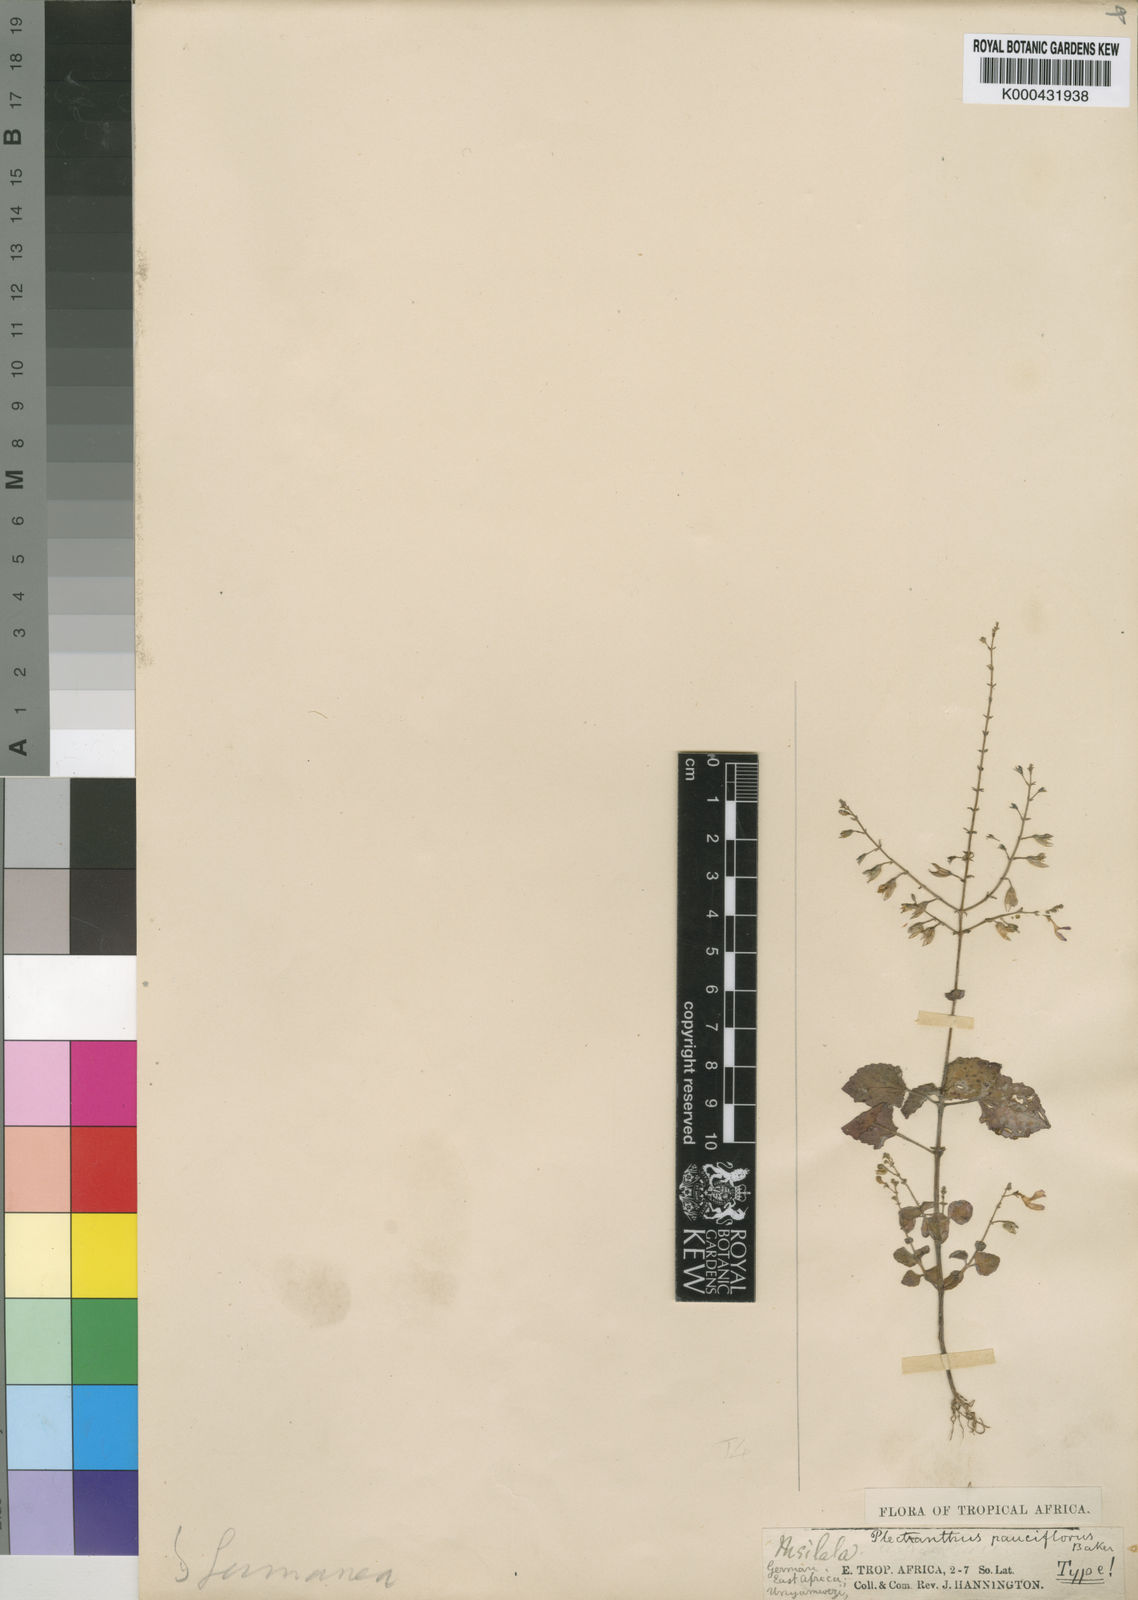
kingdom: Plantae
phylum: Tracheophyta
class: Magnoliopsida
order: Lamiales
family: Lamiaceae
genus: Equilabium
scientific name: Equilabium pauciflorum
